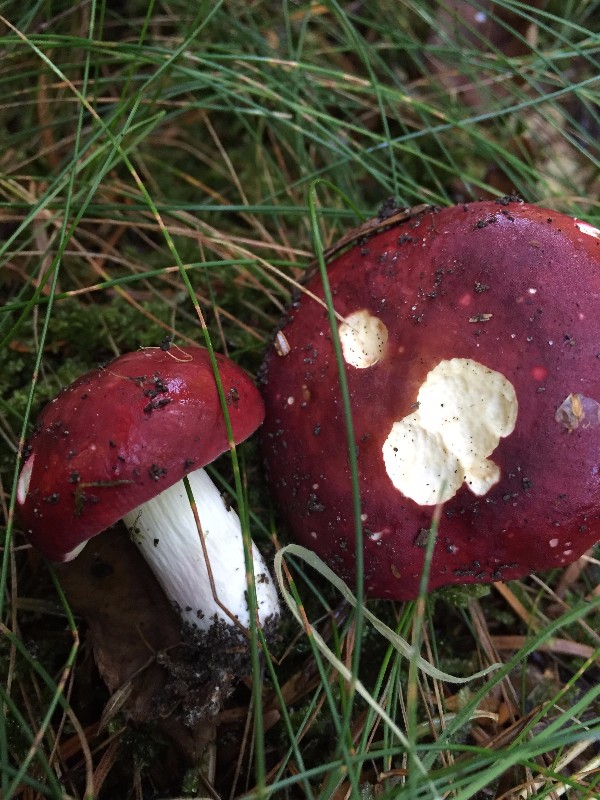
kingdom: Fungi
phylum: Basidiomycota
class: Agaricomycetes
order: Russulales
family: Russulaceae
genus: Russula
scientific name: Russula xerampelina
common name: hummer-skørhat
